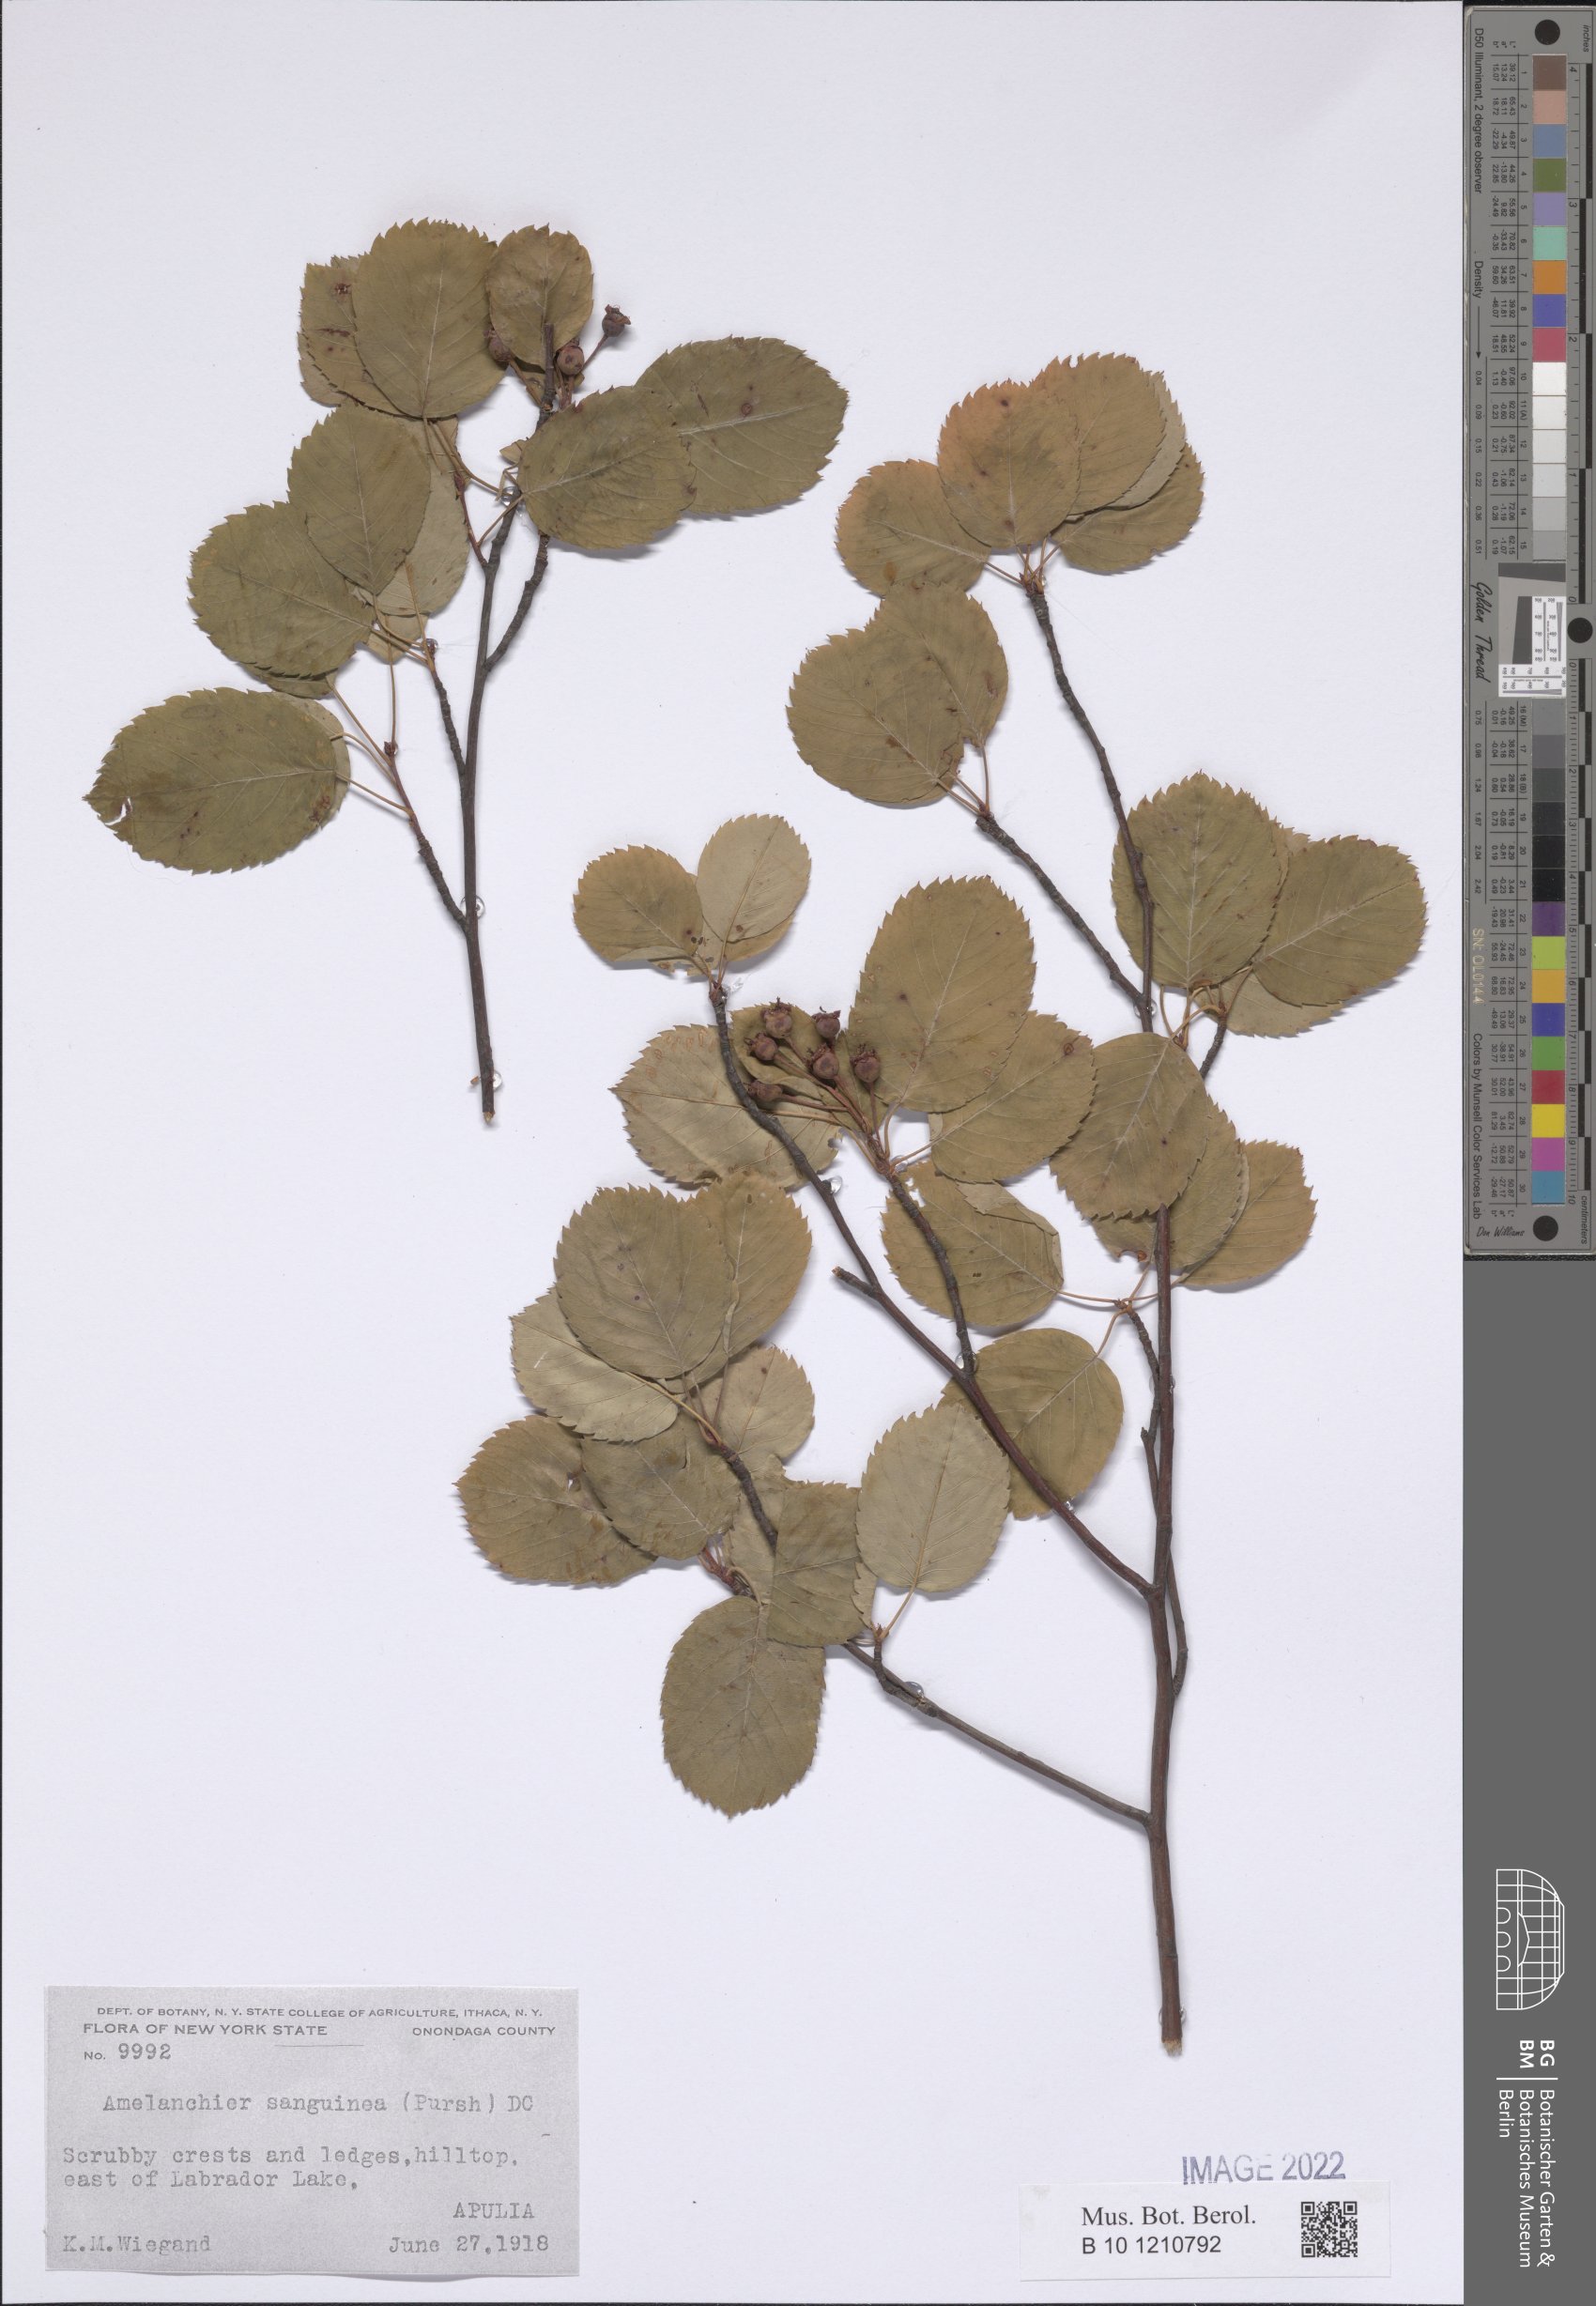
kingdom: Plantae
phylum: Tracheophyta
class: Magnoliopsida
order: Rosales
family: Rosaceae
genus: Amelanchier
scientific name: Amelanchier sanguinea
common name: Huron serviceberry
